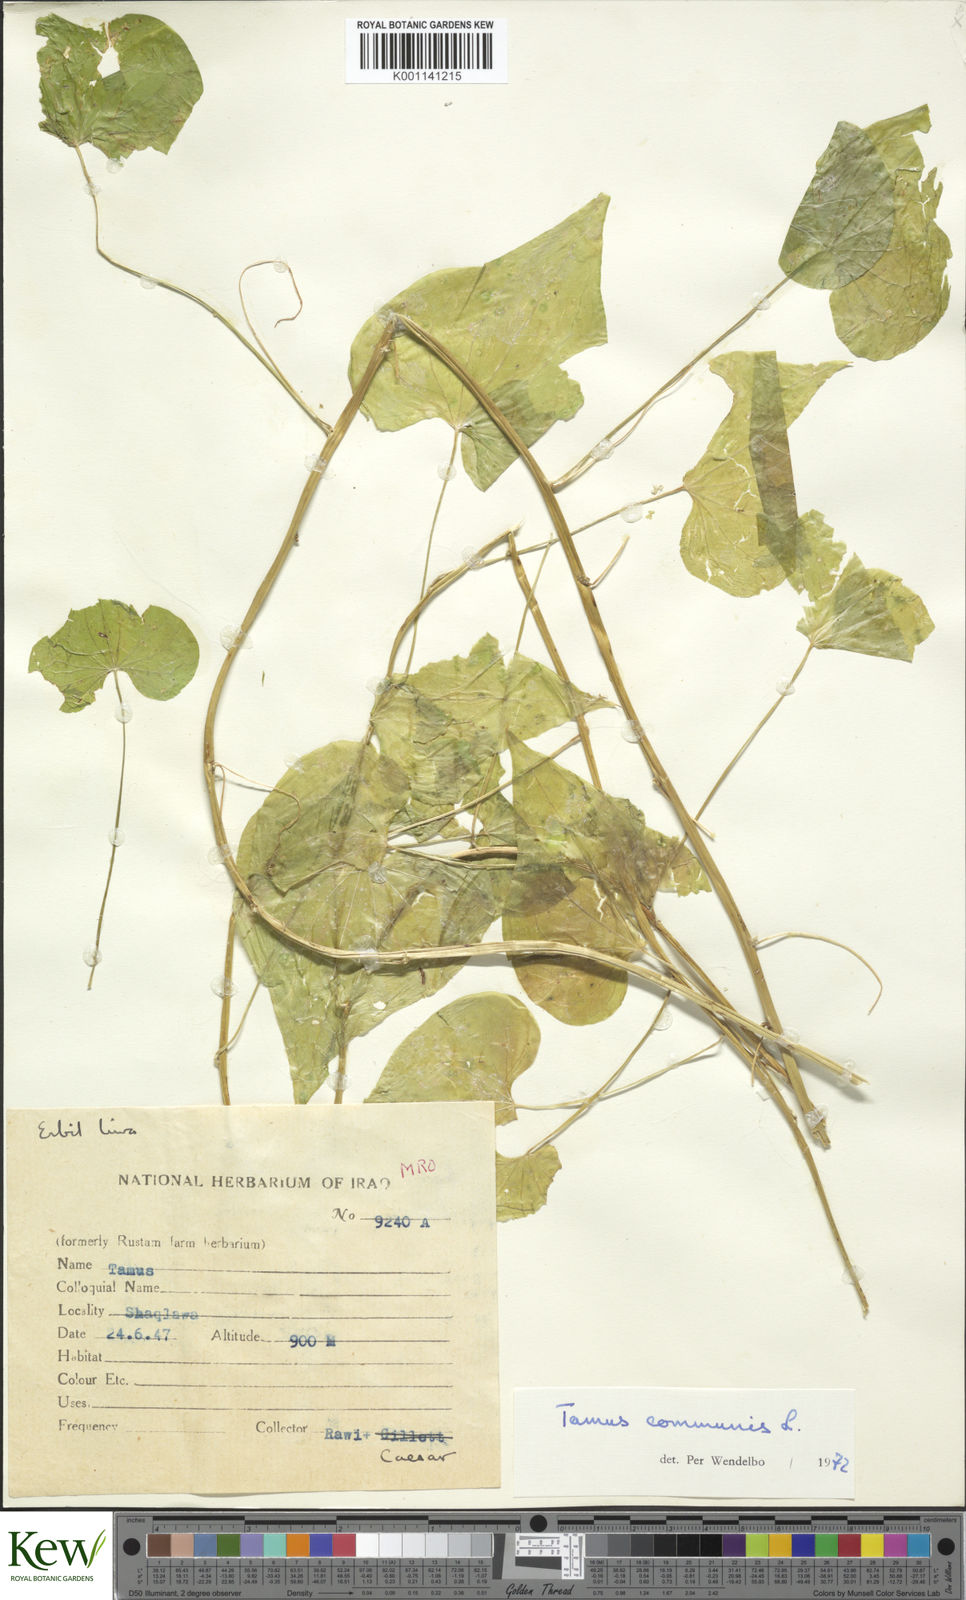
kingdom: Plantae
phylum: Tracheophyta
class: Liliopsida
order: Dioscoreales
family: Dioscoreaceae
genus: Dioscorea
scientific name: Dioscorea communis
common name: Black-bindweed
